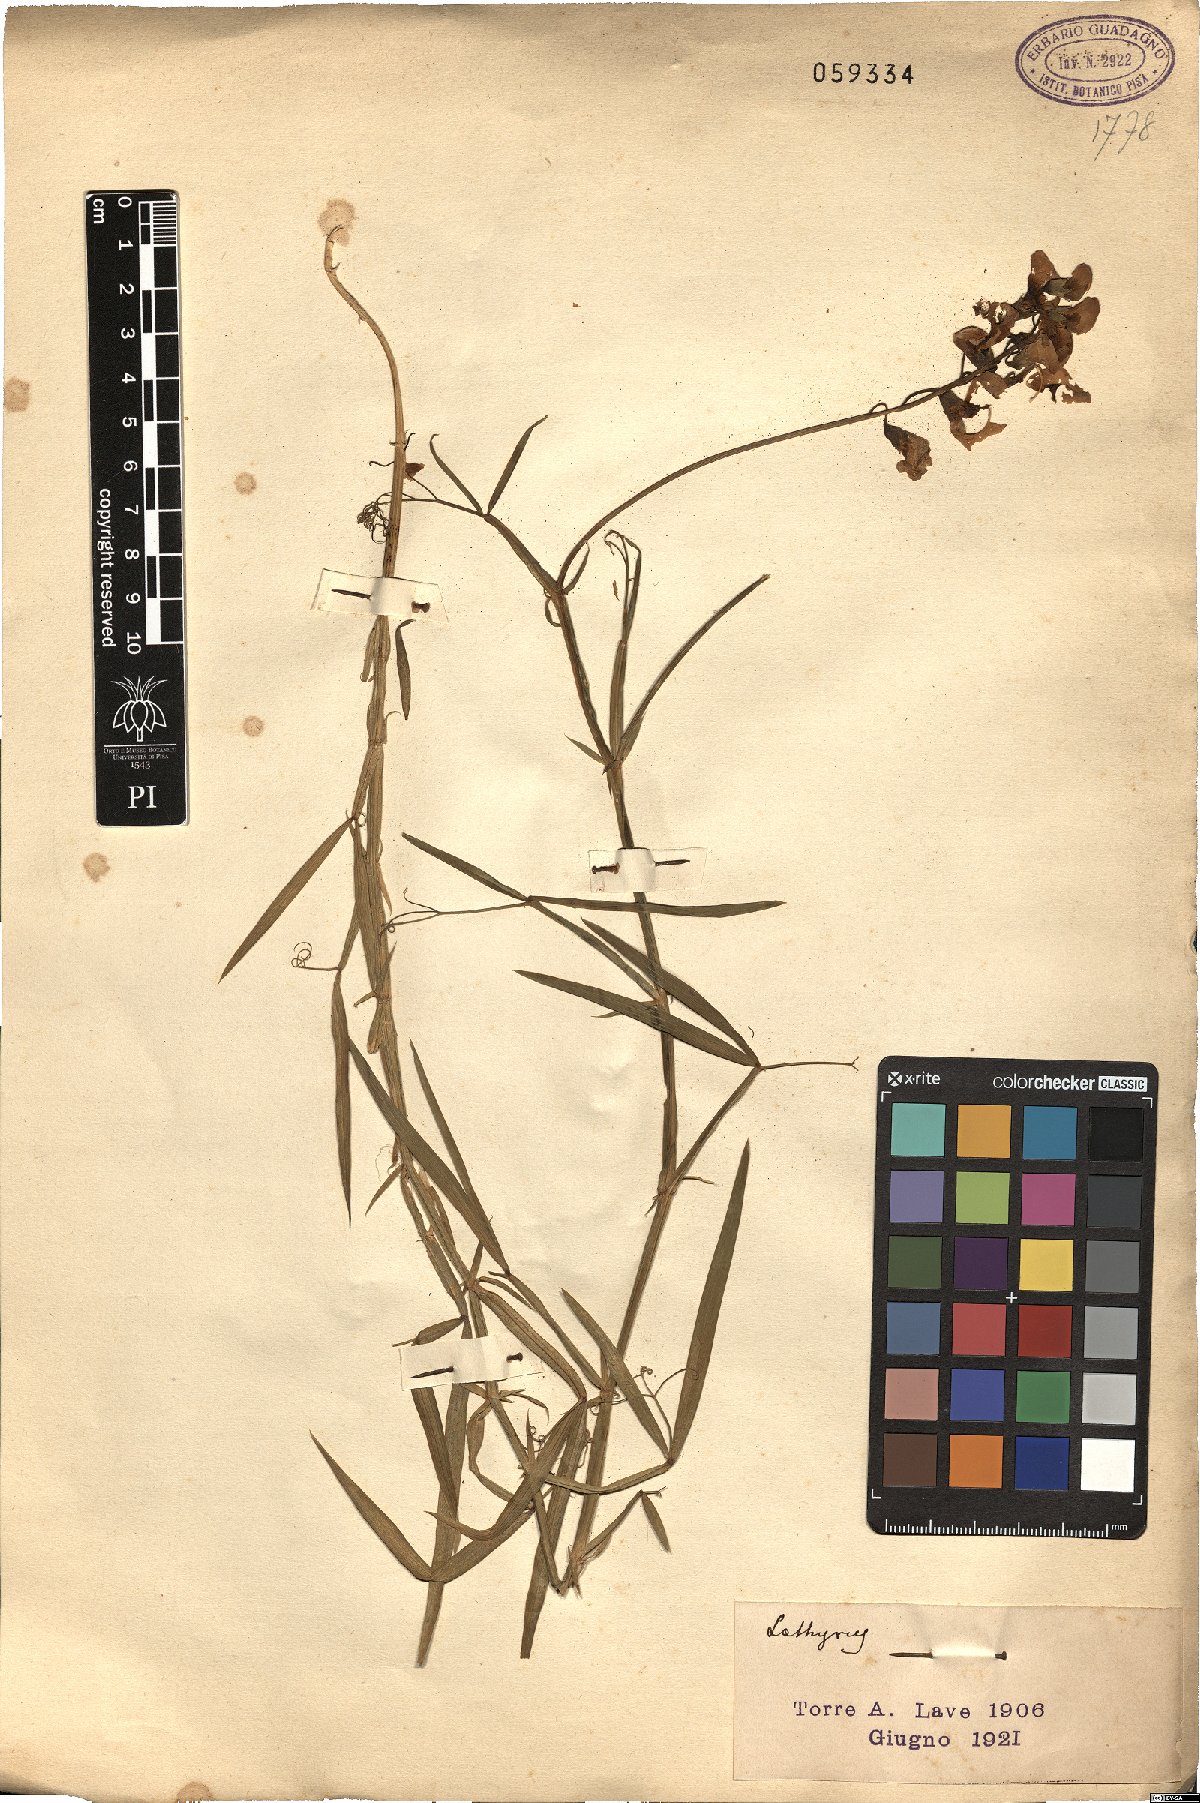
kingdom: Plantae
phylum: Tracheophyta
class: Magnoliopsida
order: Fabales
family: Fabaceae
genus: Lathyrus
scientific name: Lathyrus
